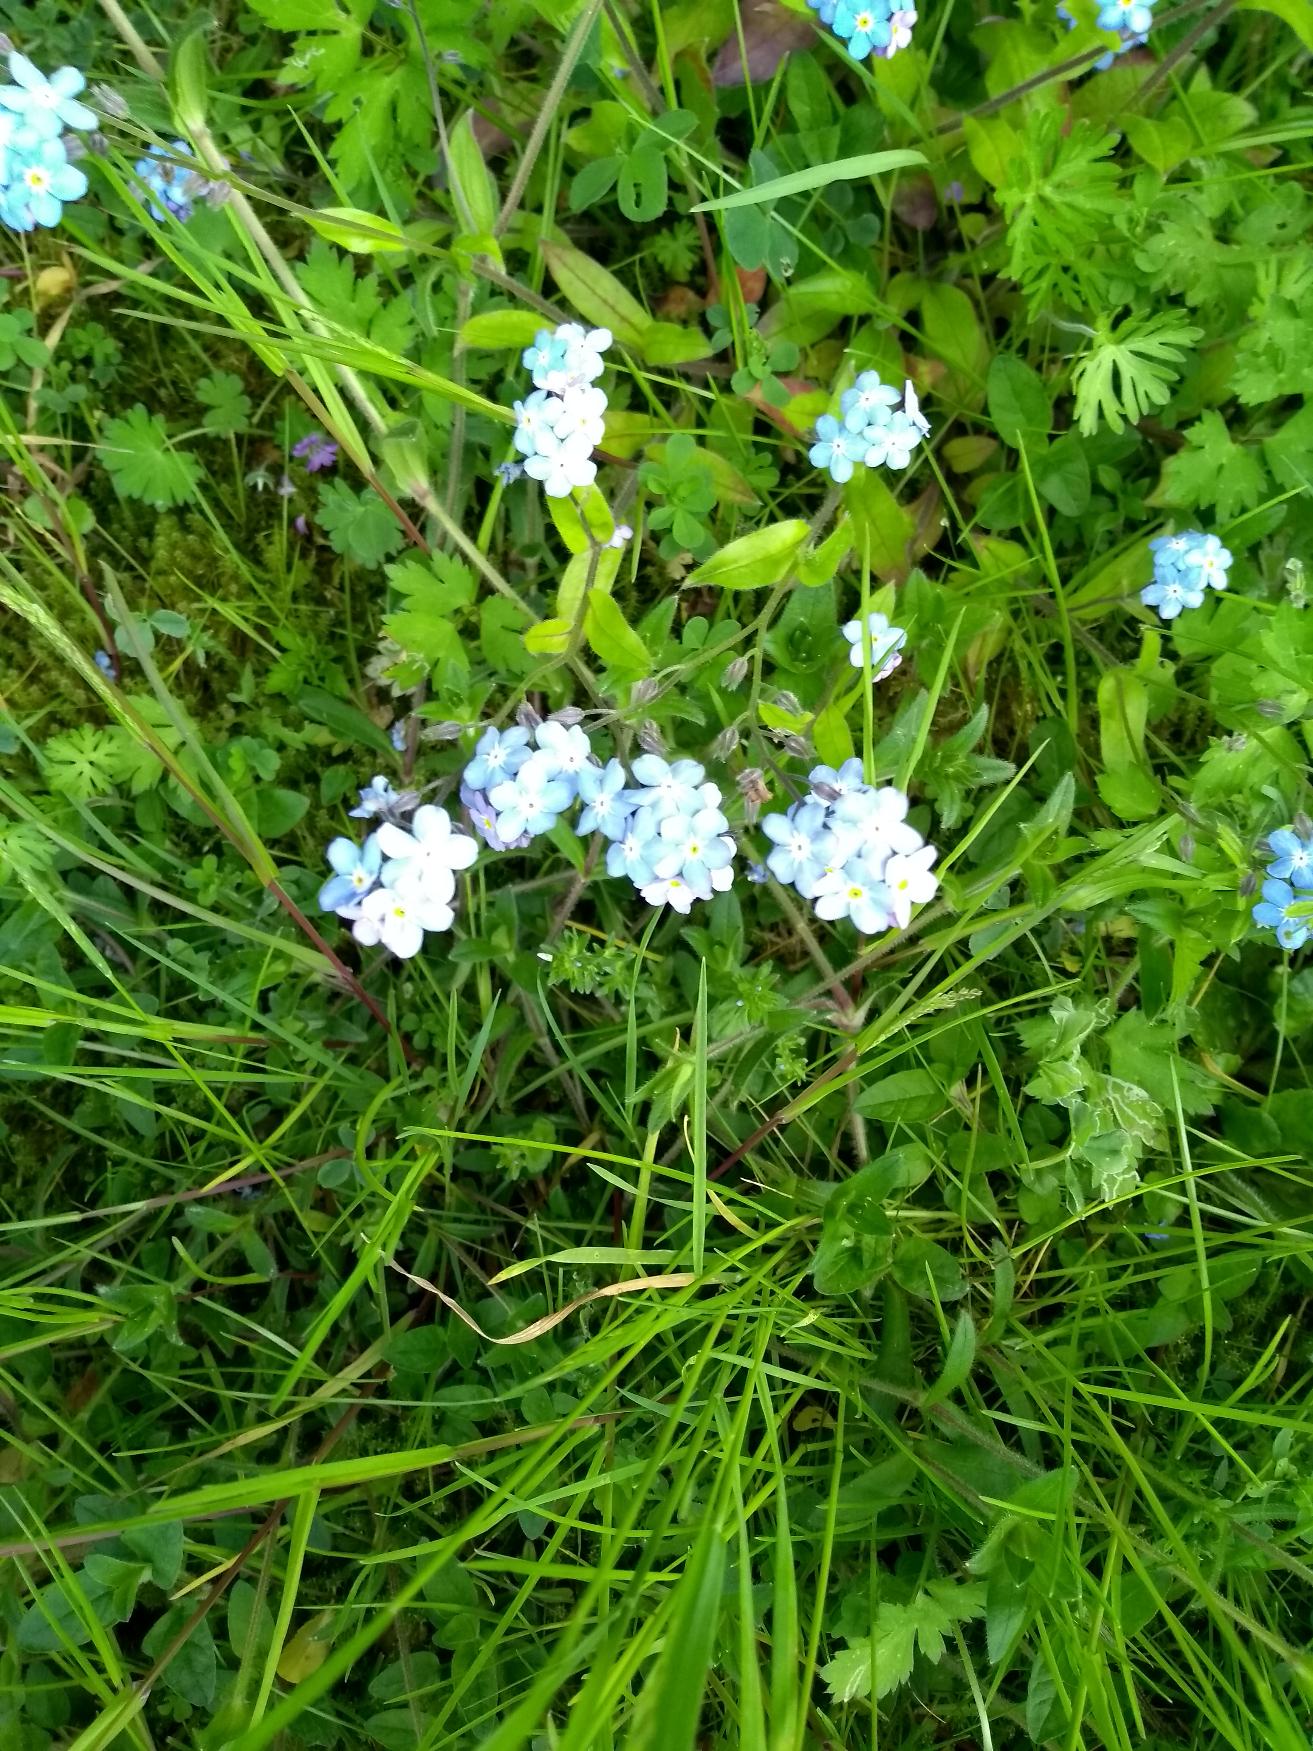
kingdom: Plantae
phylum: Tracheophyta
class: Magnoliopsida
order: Boraginales
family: Boraginaceae
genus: Myosotis
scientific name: Myosotis sylvatica
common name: Skov-forglemmigej
